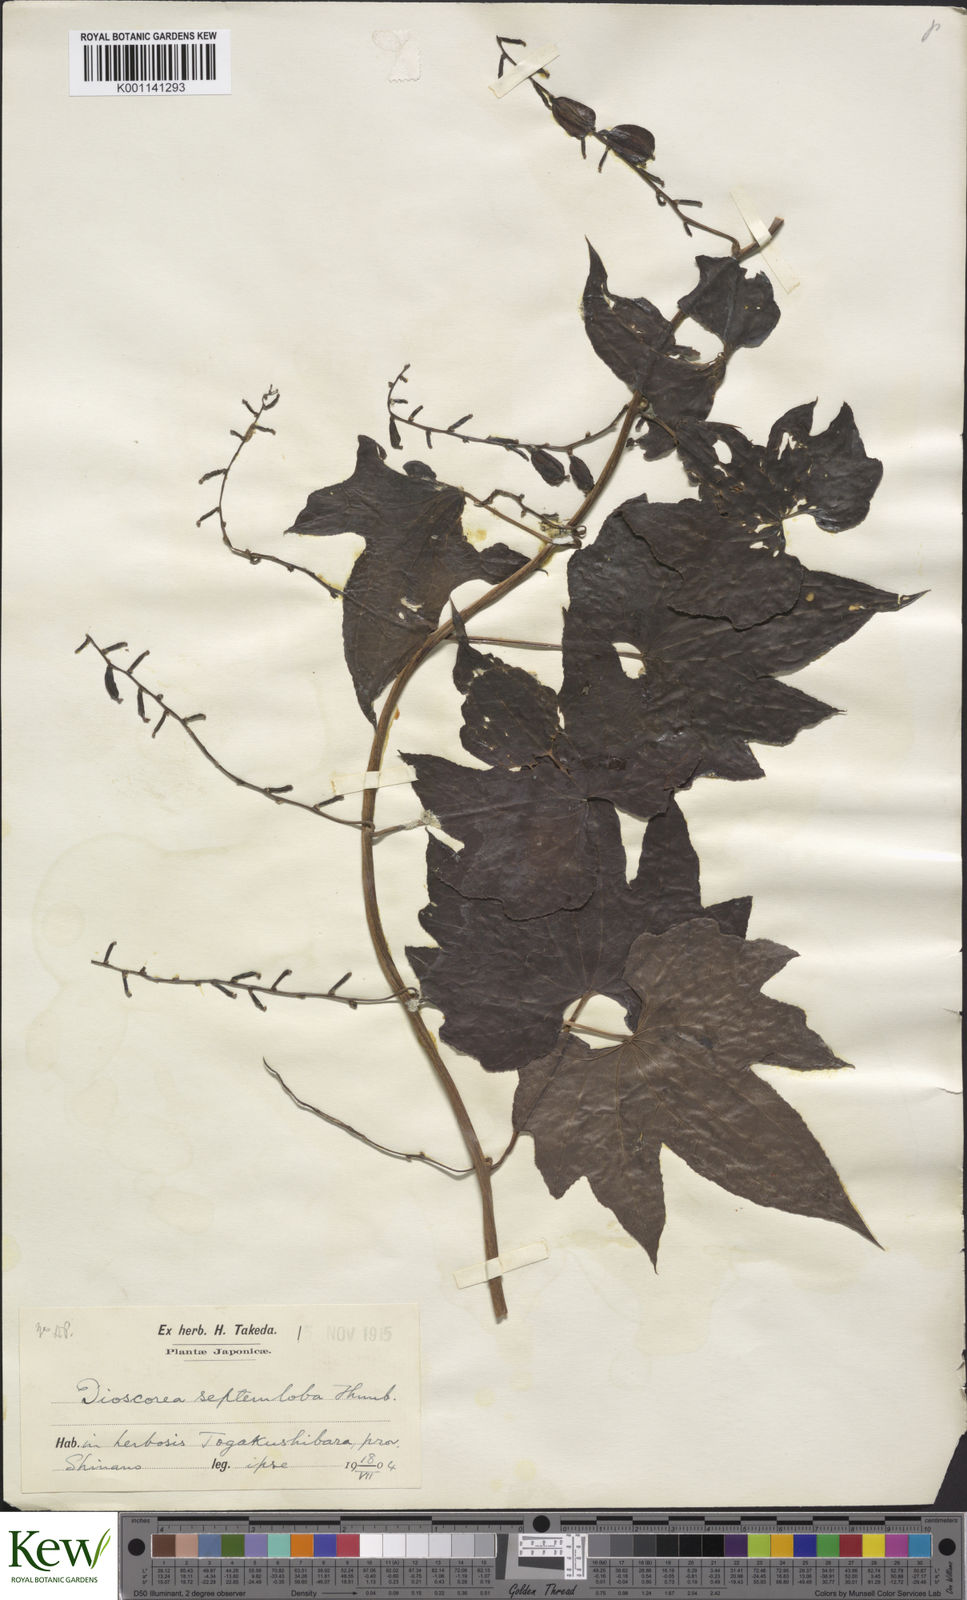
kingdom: Plantae
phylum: Tracheophyta
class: Liliopsida
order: Dioscoreales
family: Dioscoreaceae
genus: Dioscorea
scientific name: Dioscorea septemloba
